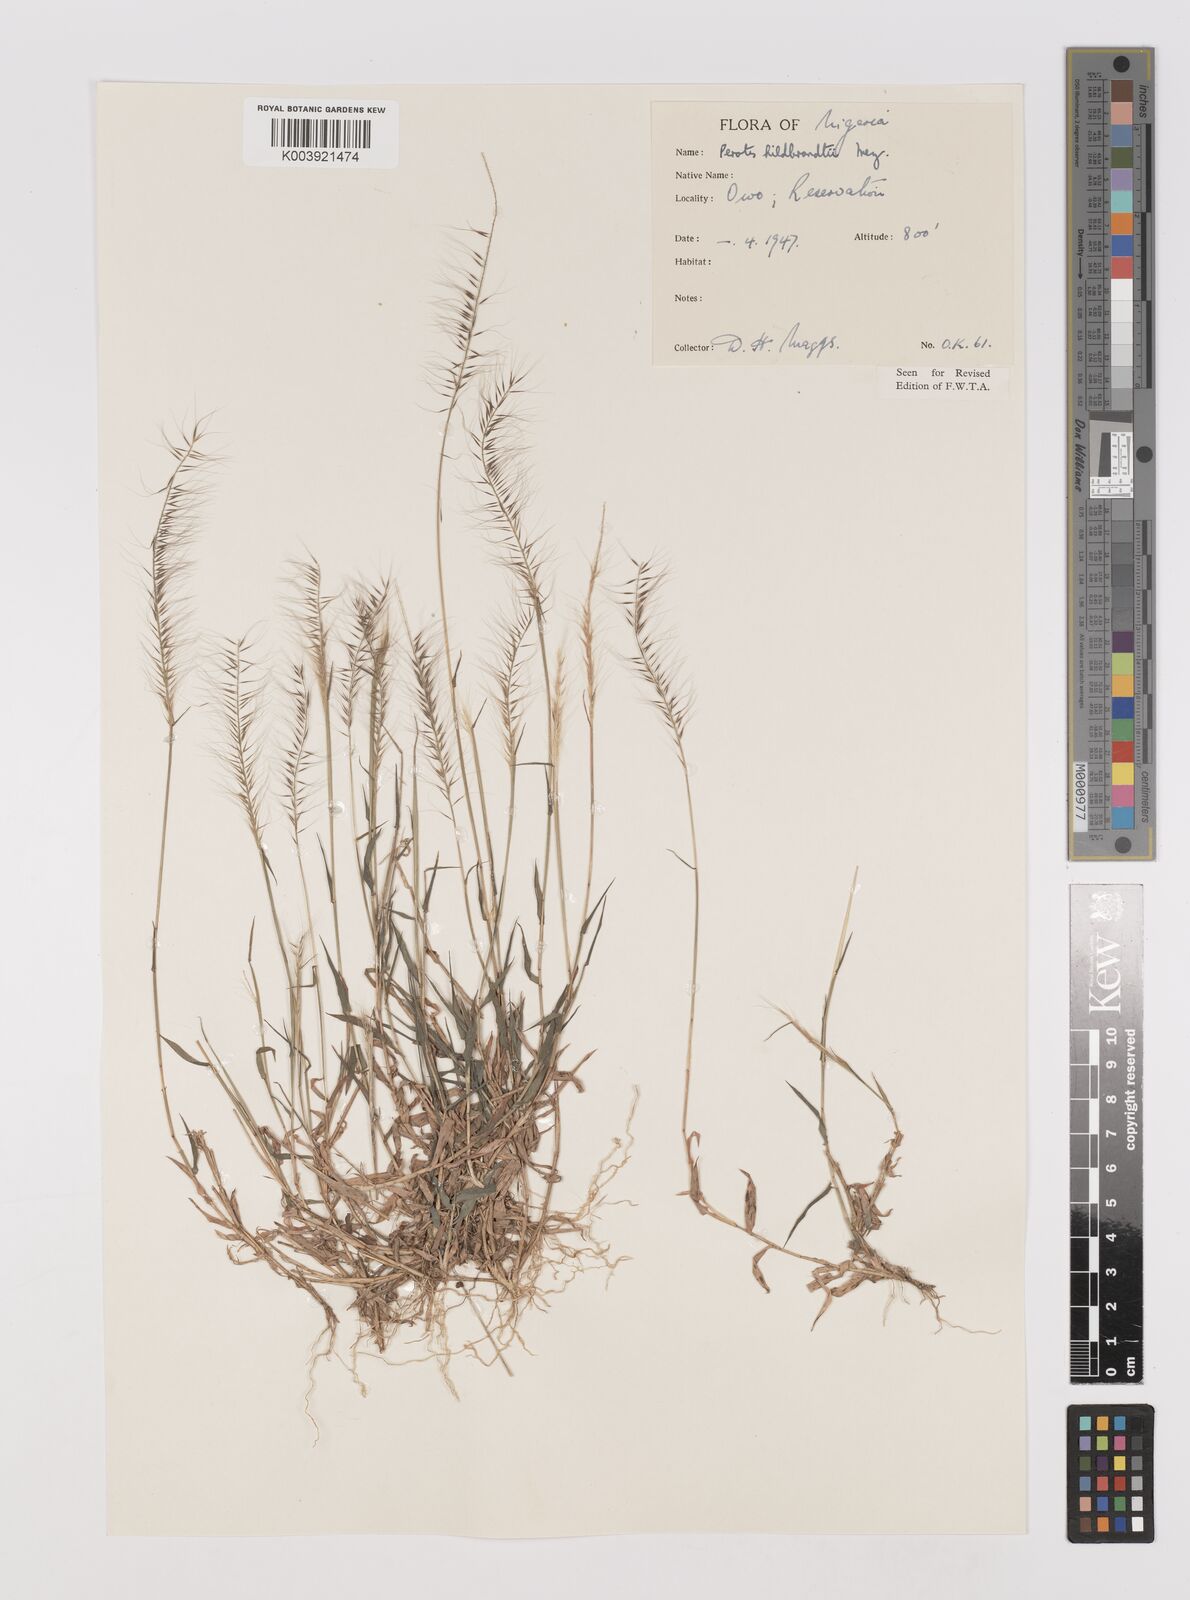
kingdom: Plantae
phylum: Tracheophyta
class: Liliopsida
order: Poales
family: Poaceae
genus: Perotis
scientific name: Perotis hildebrandtii
